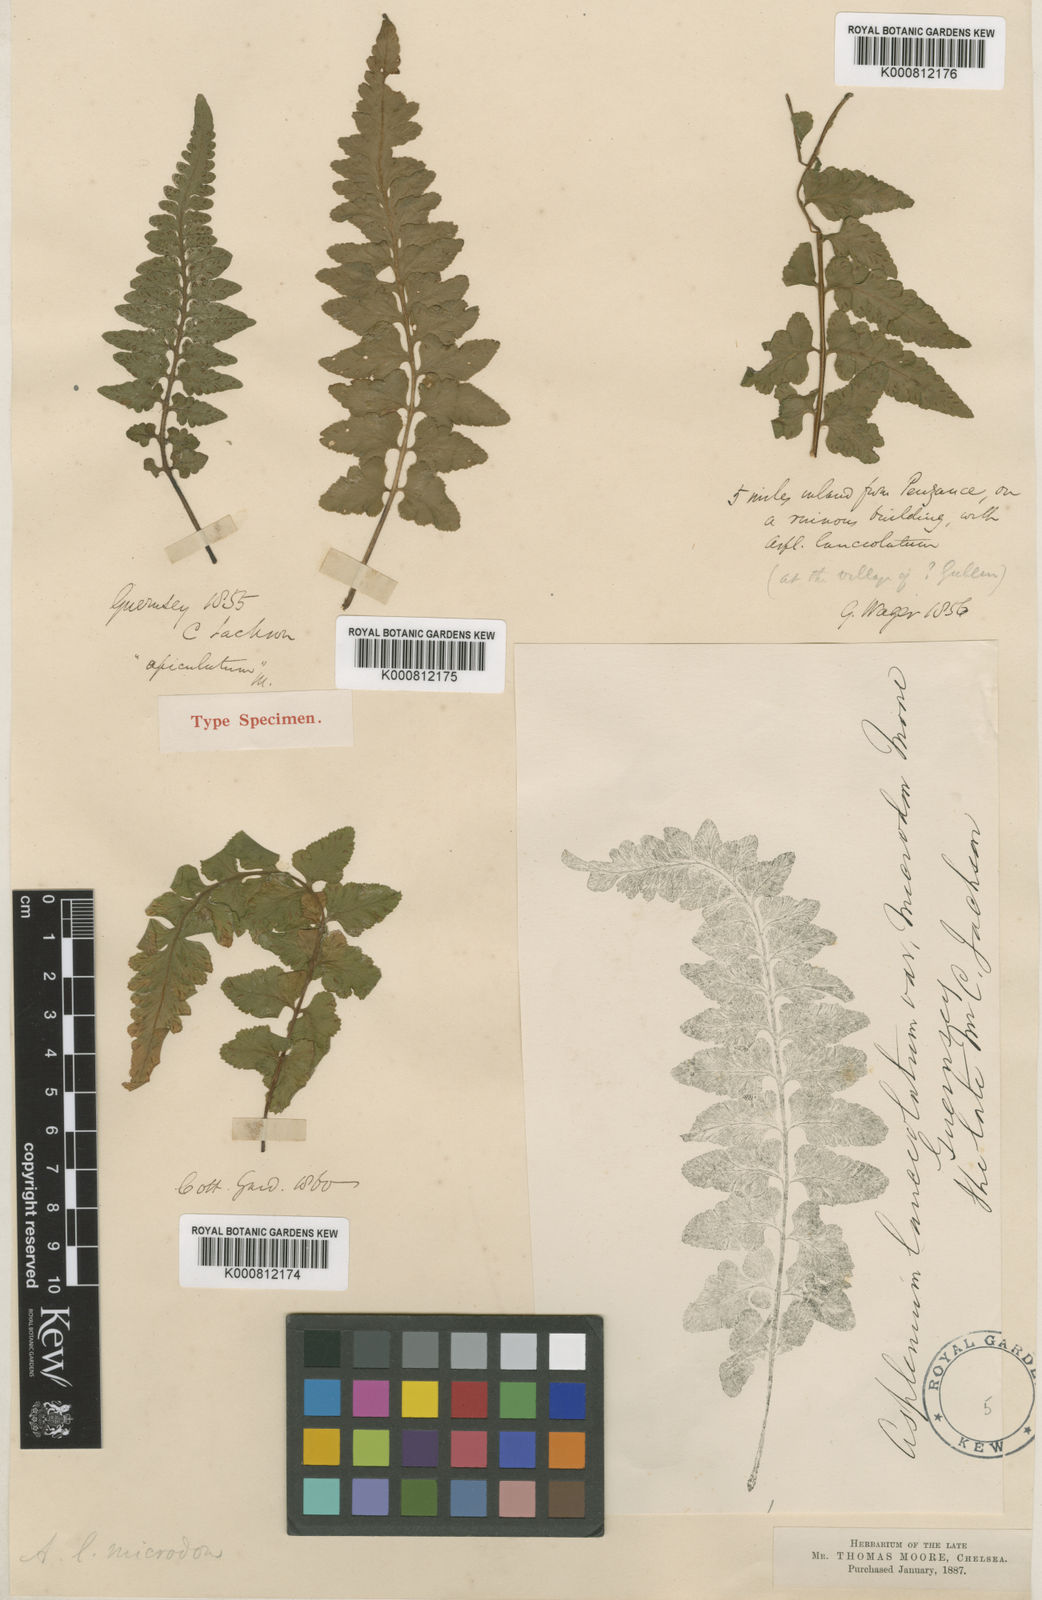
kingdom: Plantae
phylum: Tracheophyta
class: Polypodiopsida
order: Polypodiales
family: Aspleniaceae
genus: Asplenium
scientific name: Asplenium jacksonii
